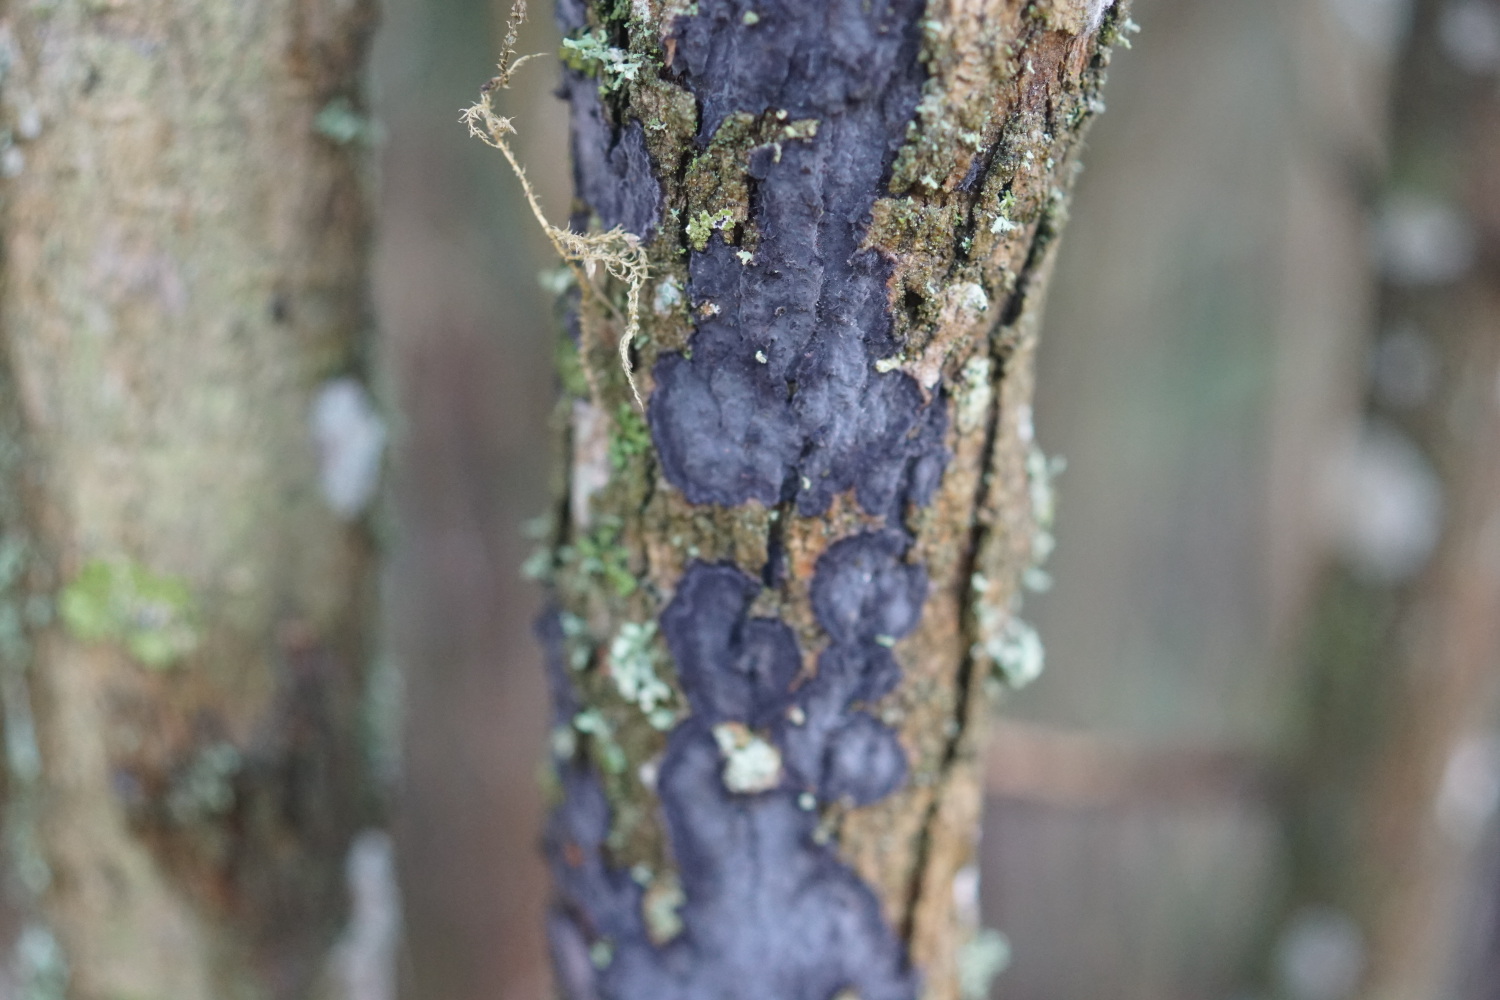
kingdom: Fungi
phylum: Basidiomycota
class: Agaricomycetes
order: Russulales
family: Peniophoraceae
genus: Peniophora
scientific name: Peniophora limitata
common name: mørkrandet voksskind
